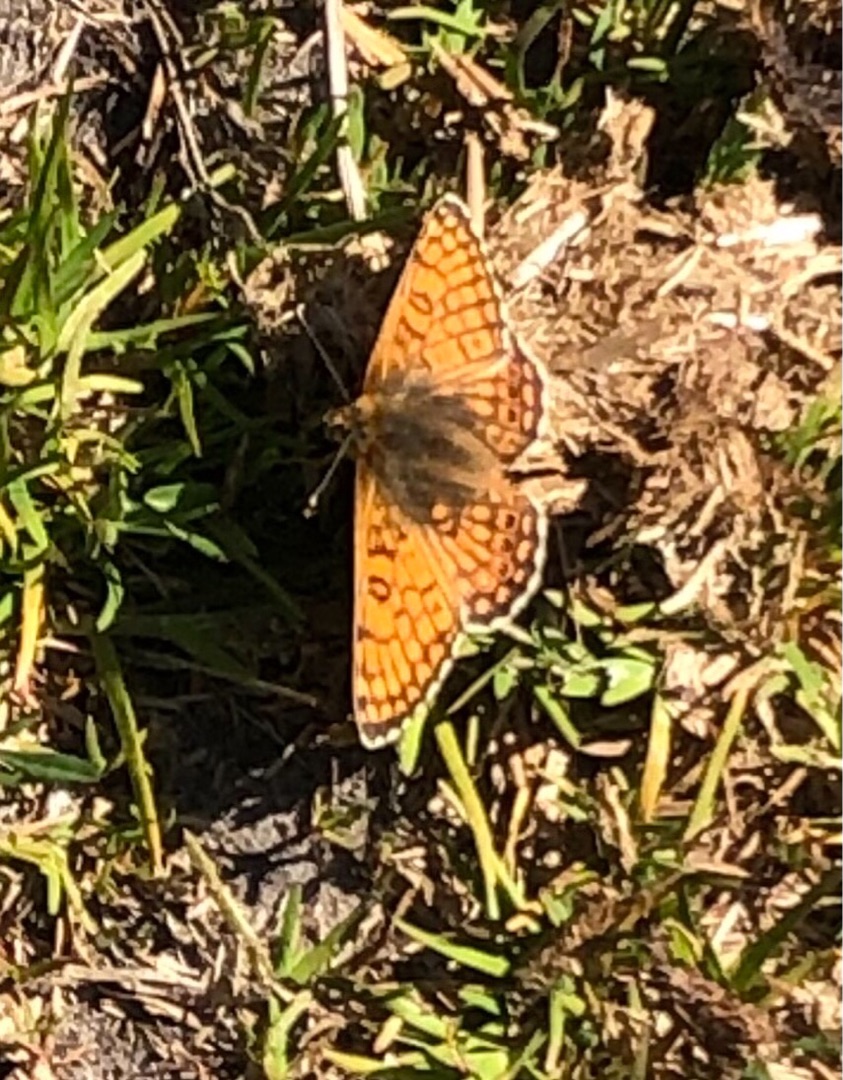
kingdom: Animalia
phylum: Arthropoda
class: Insecta
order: Lepidoptera
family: Nymphalidae
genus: Melitaea
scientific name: Melitaea cinxia
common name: Okkergul pletvinge
